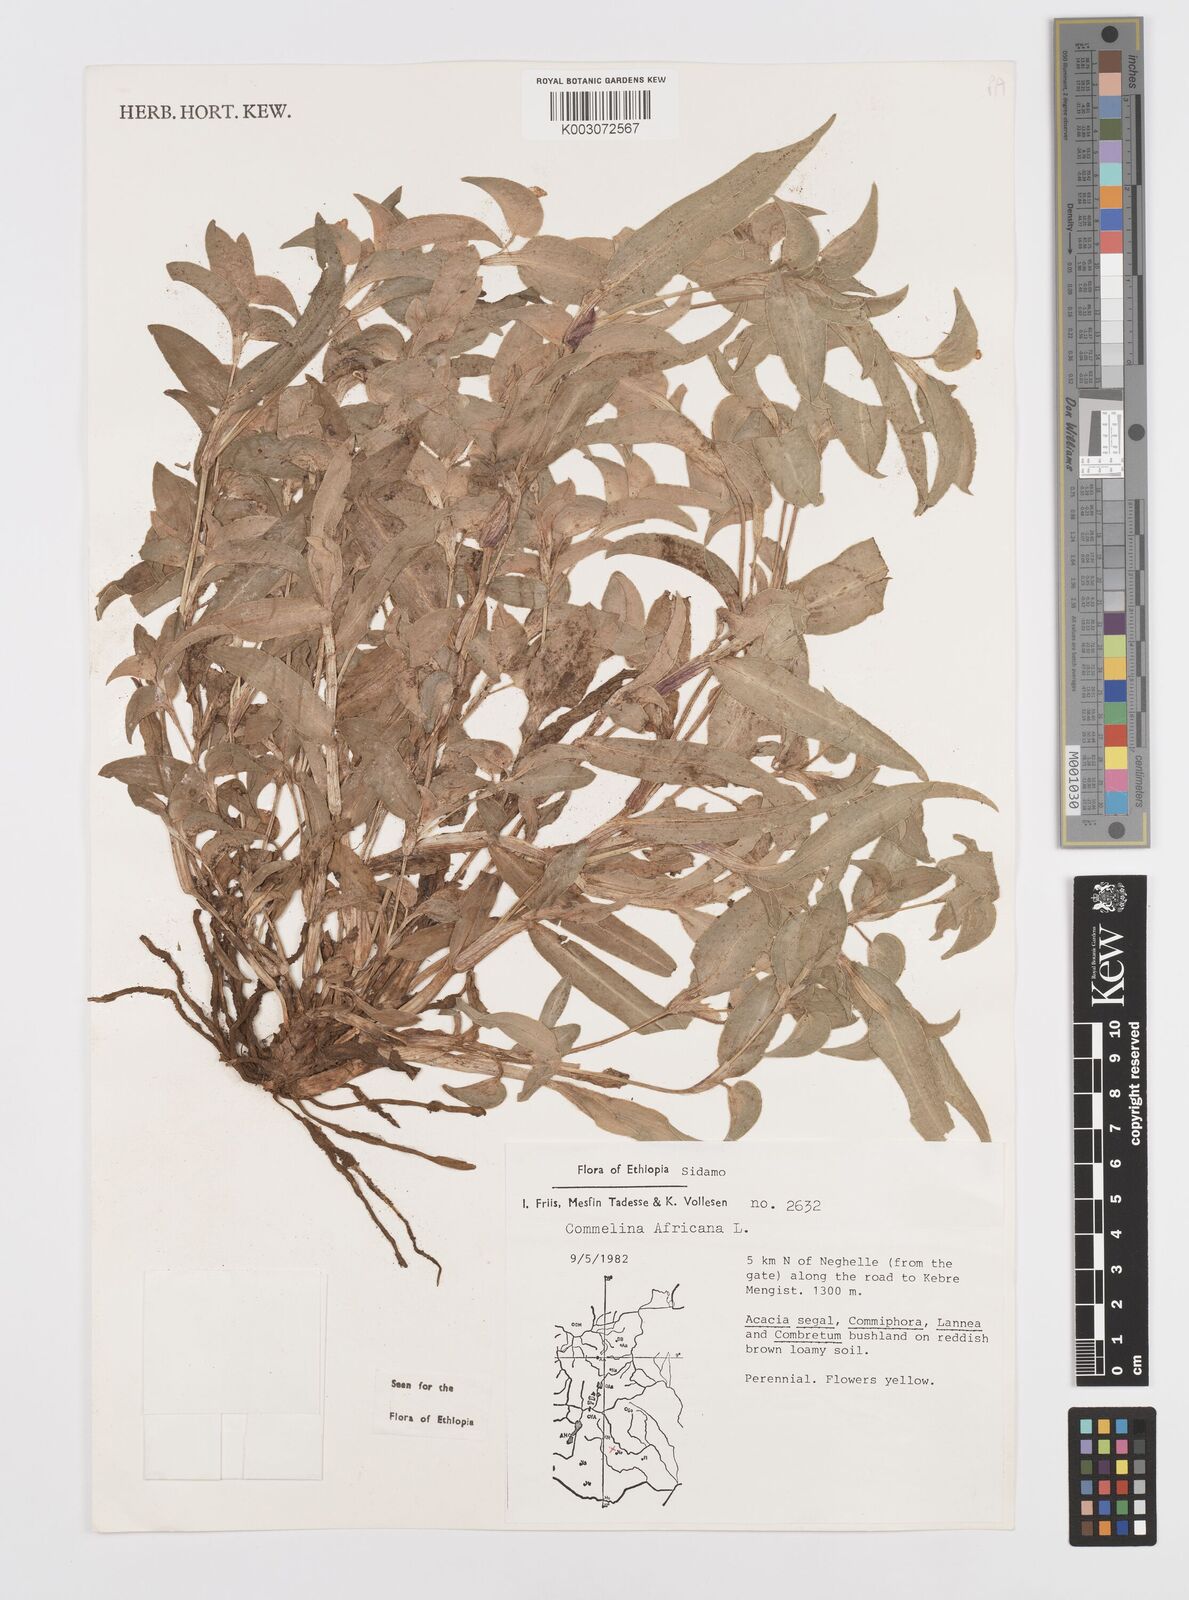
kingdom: Plantae
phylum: Tracheophyta
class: Liliopsida
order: Commelinales
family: Commelinaceae
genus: Commelina
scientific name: Commelina africana
